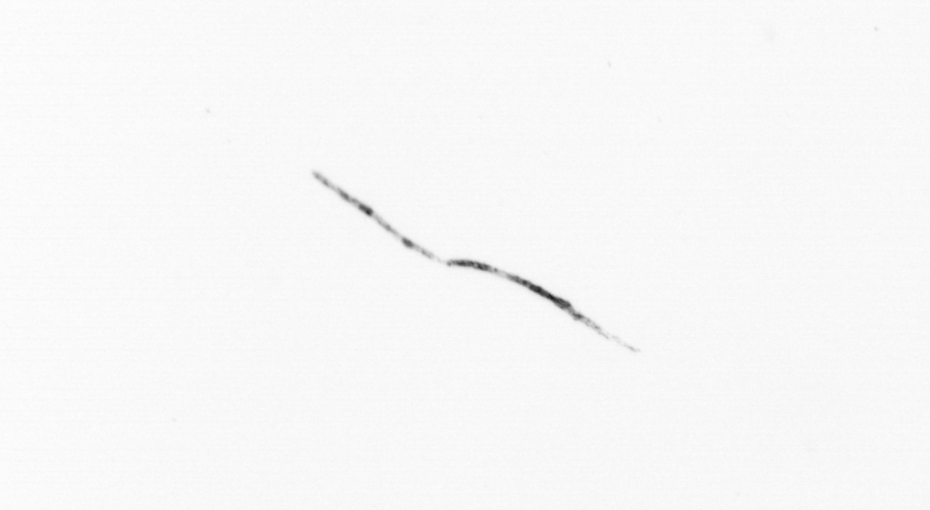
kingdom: Chromista
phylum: Ochrophyta
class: Bacillariophyceae
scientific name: Bacillariophyceae
